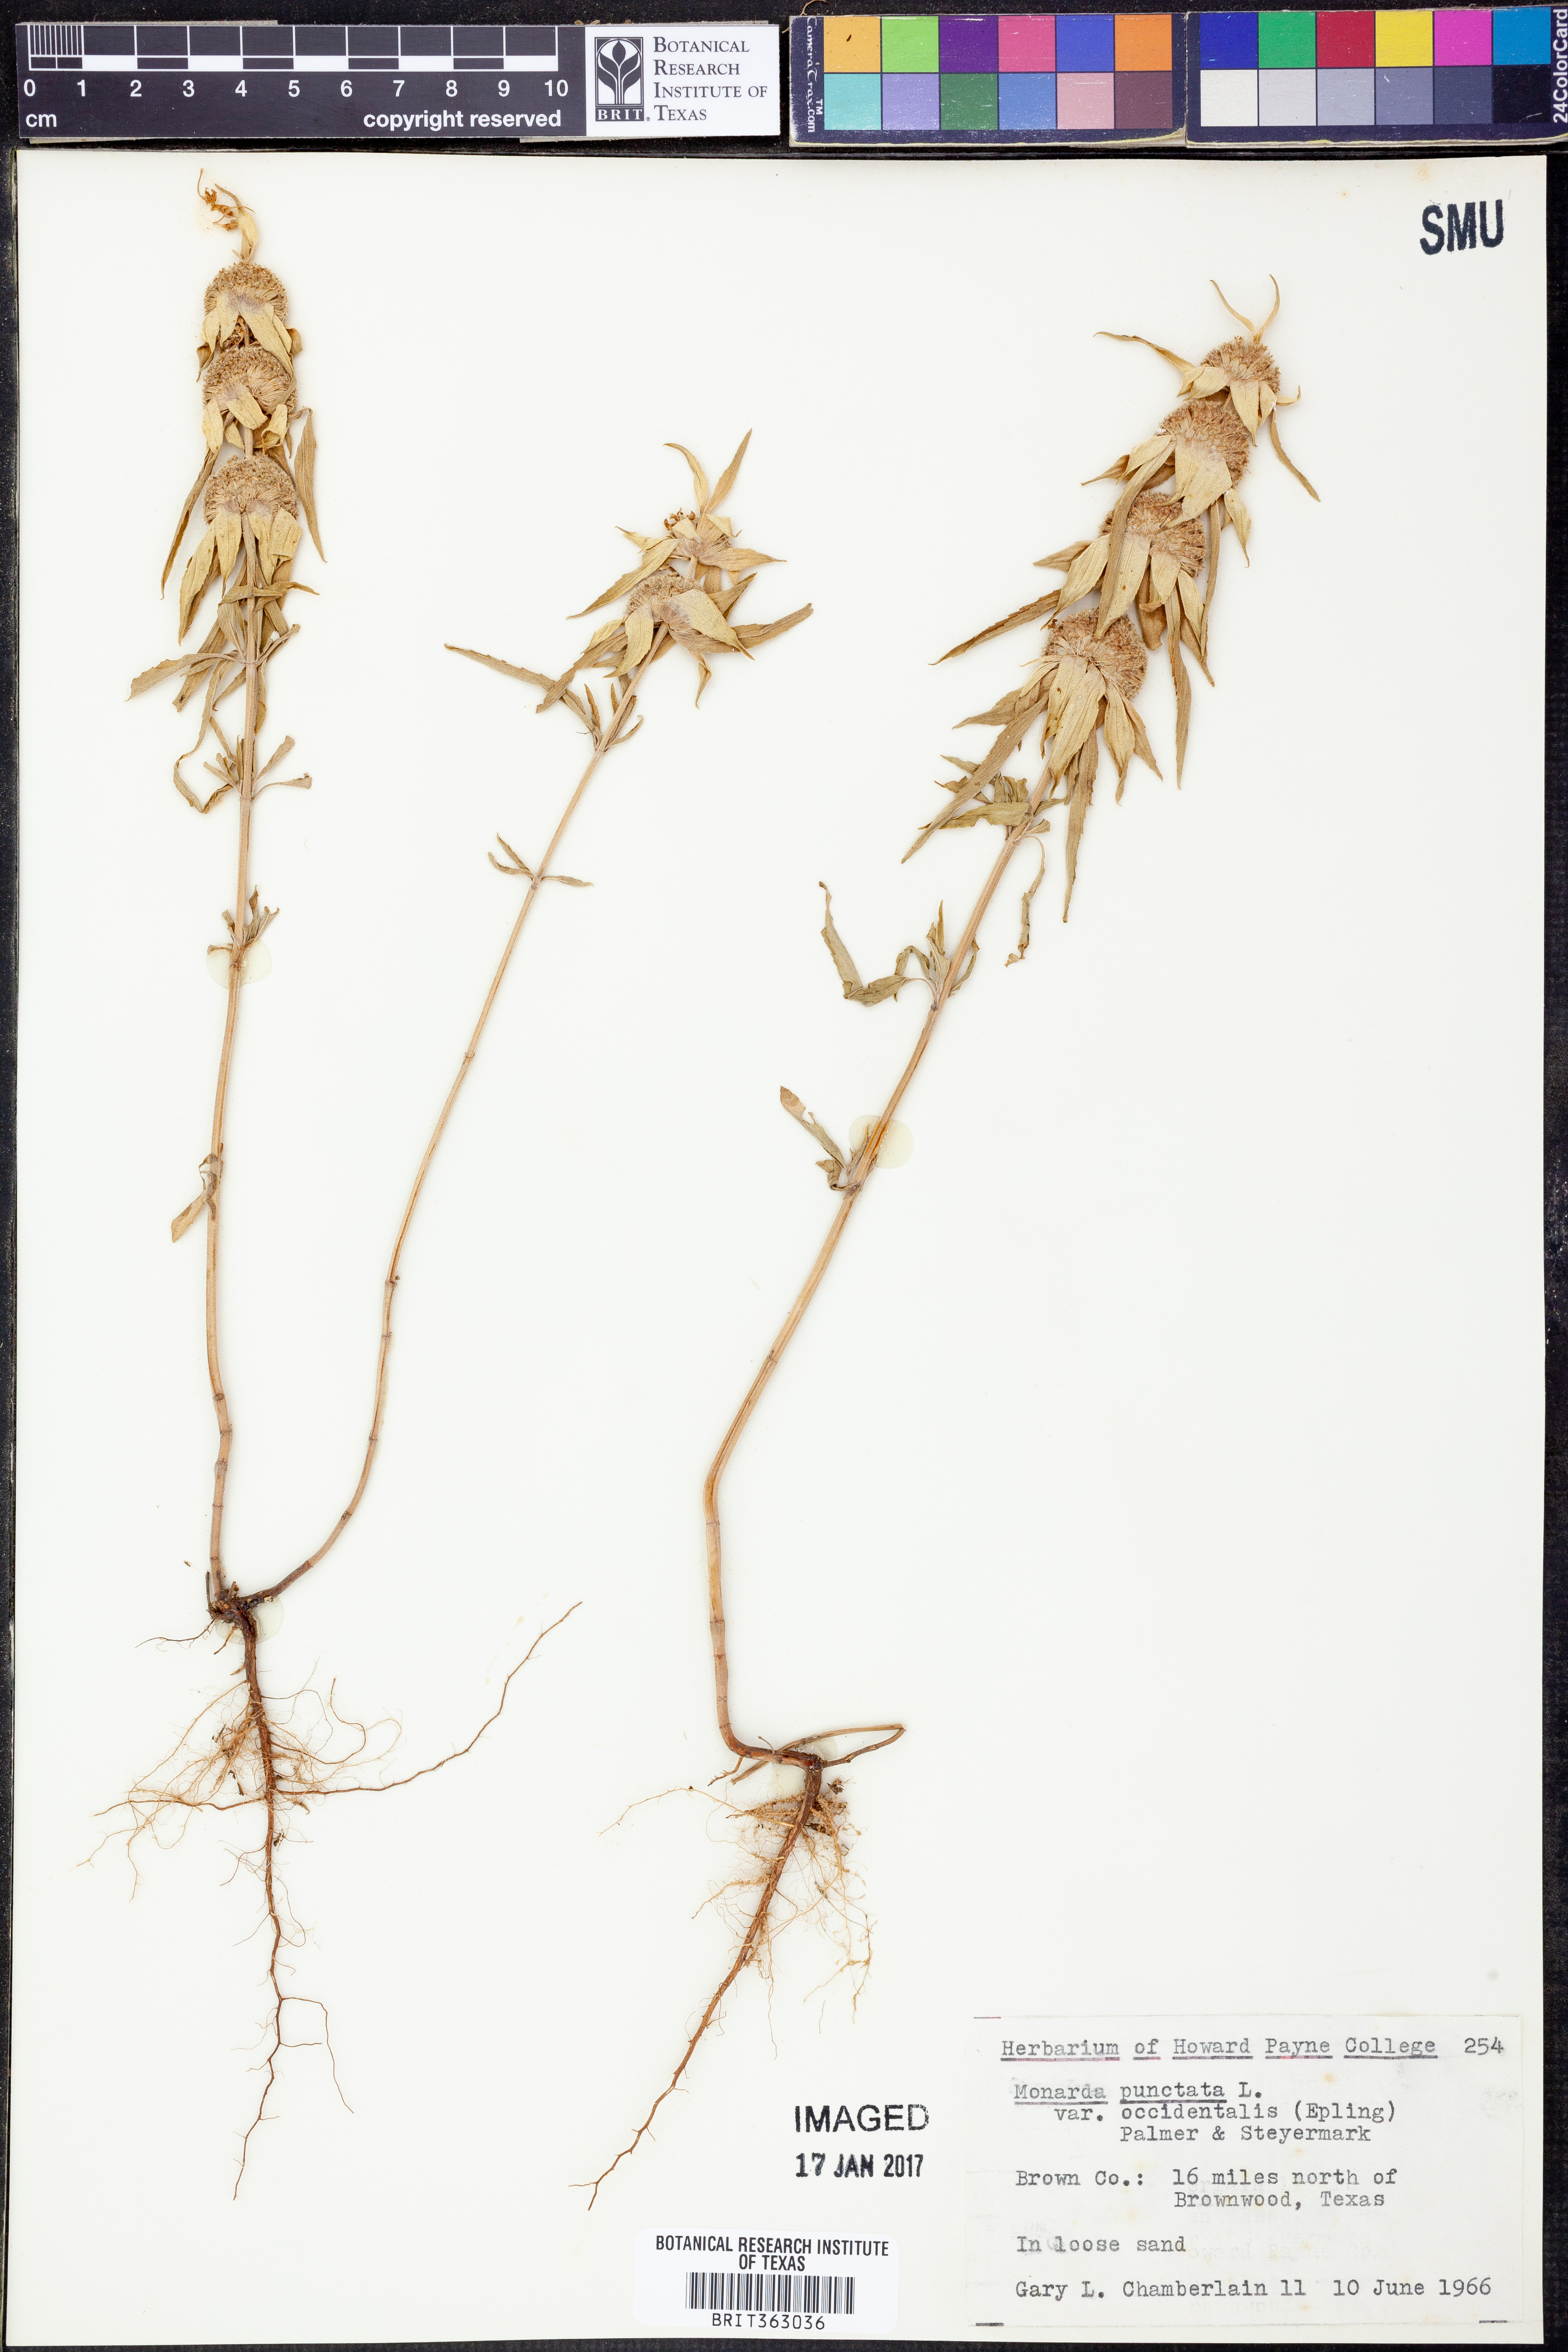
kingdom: Plantae
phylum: Tracheophyta
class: Magnoliopsida
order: Lamiales
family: Lamiaceae
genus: Monarda
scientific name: Monarda punctata
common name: Dotted monarda
